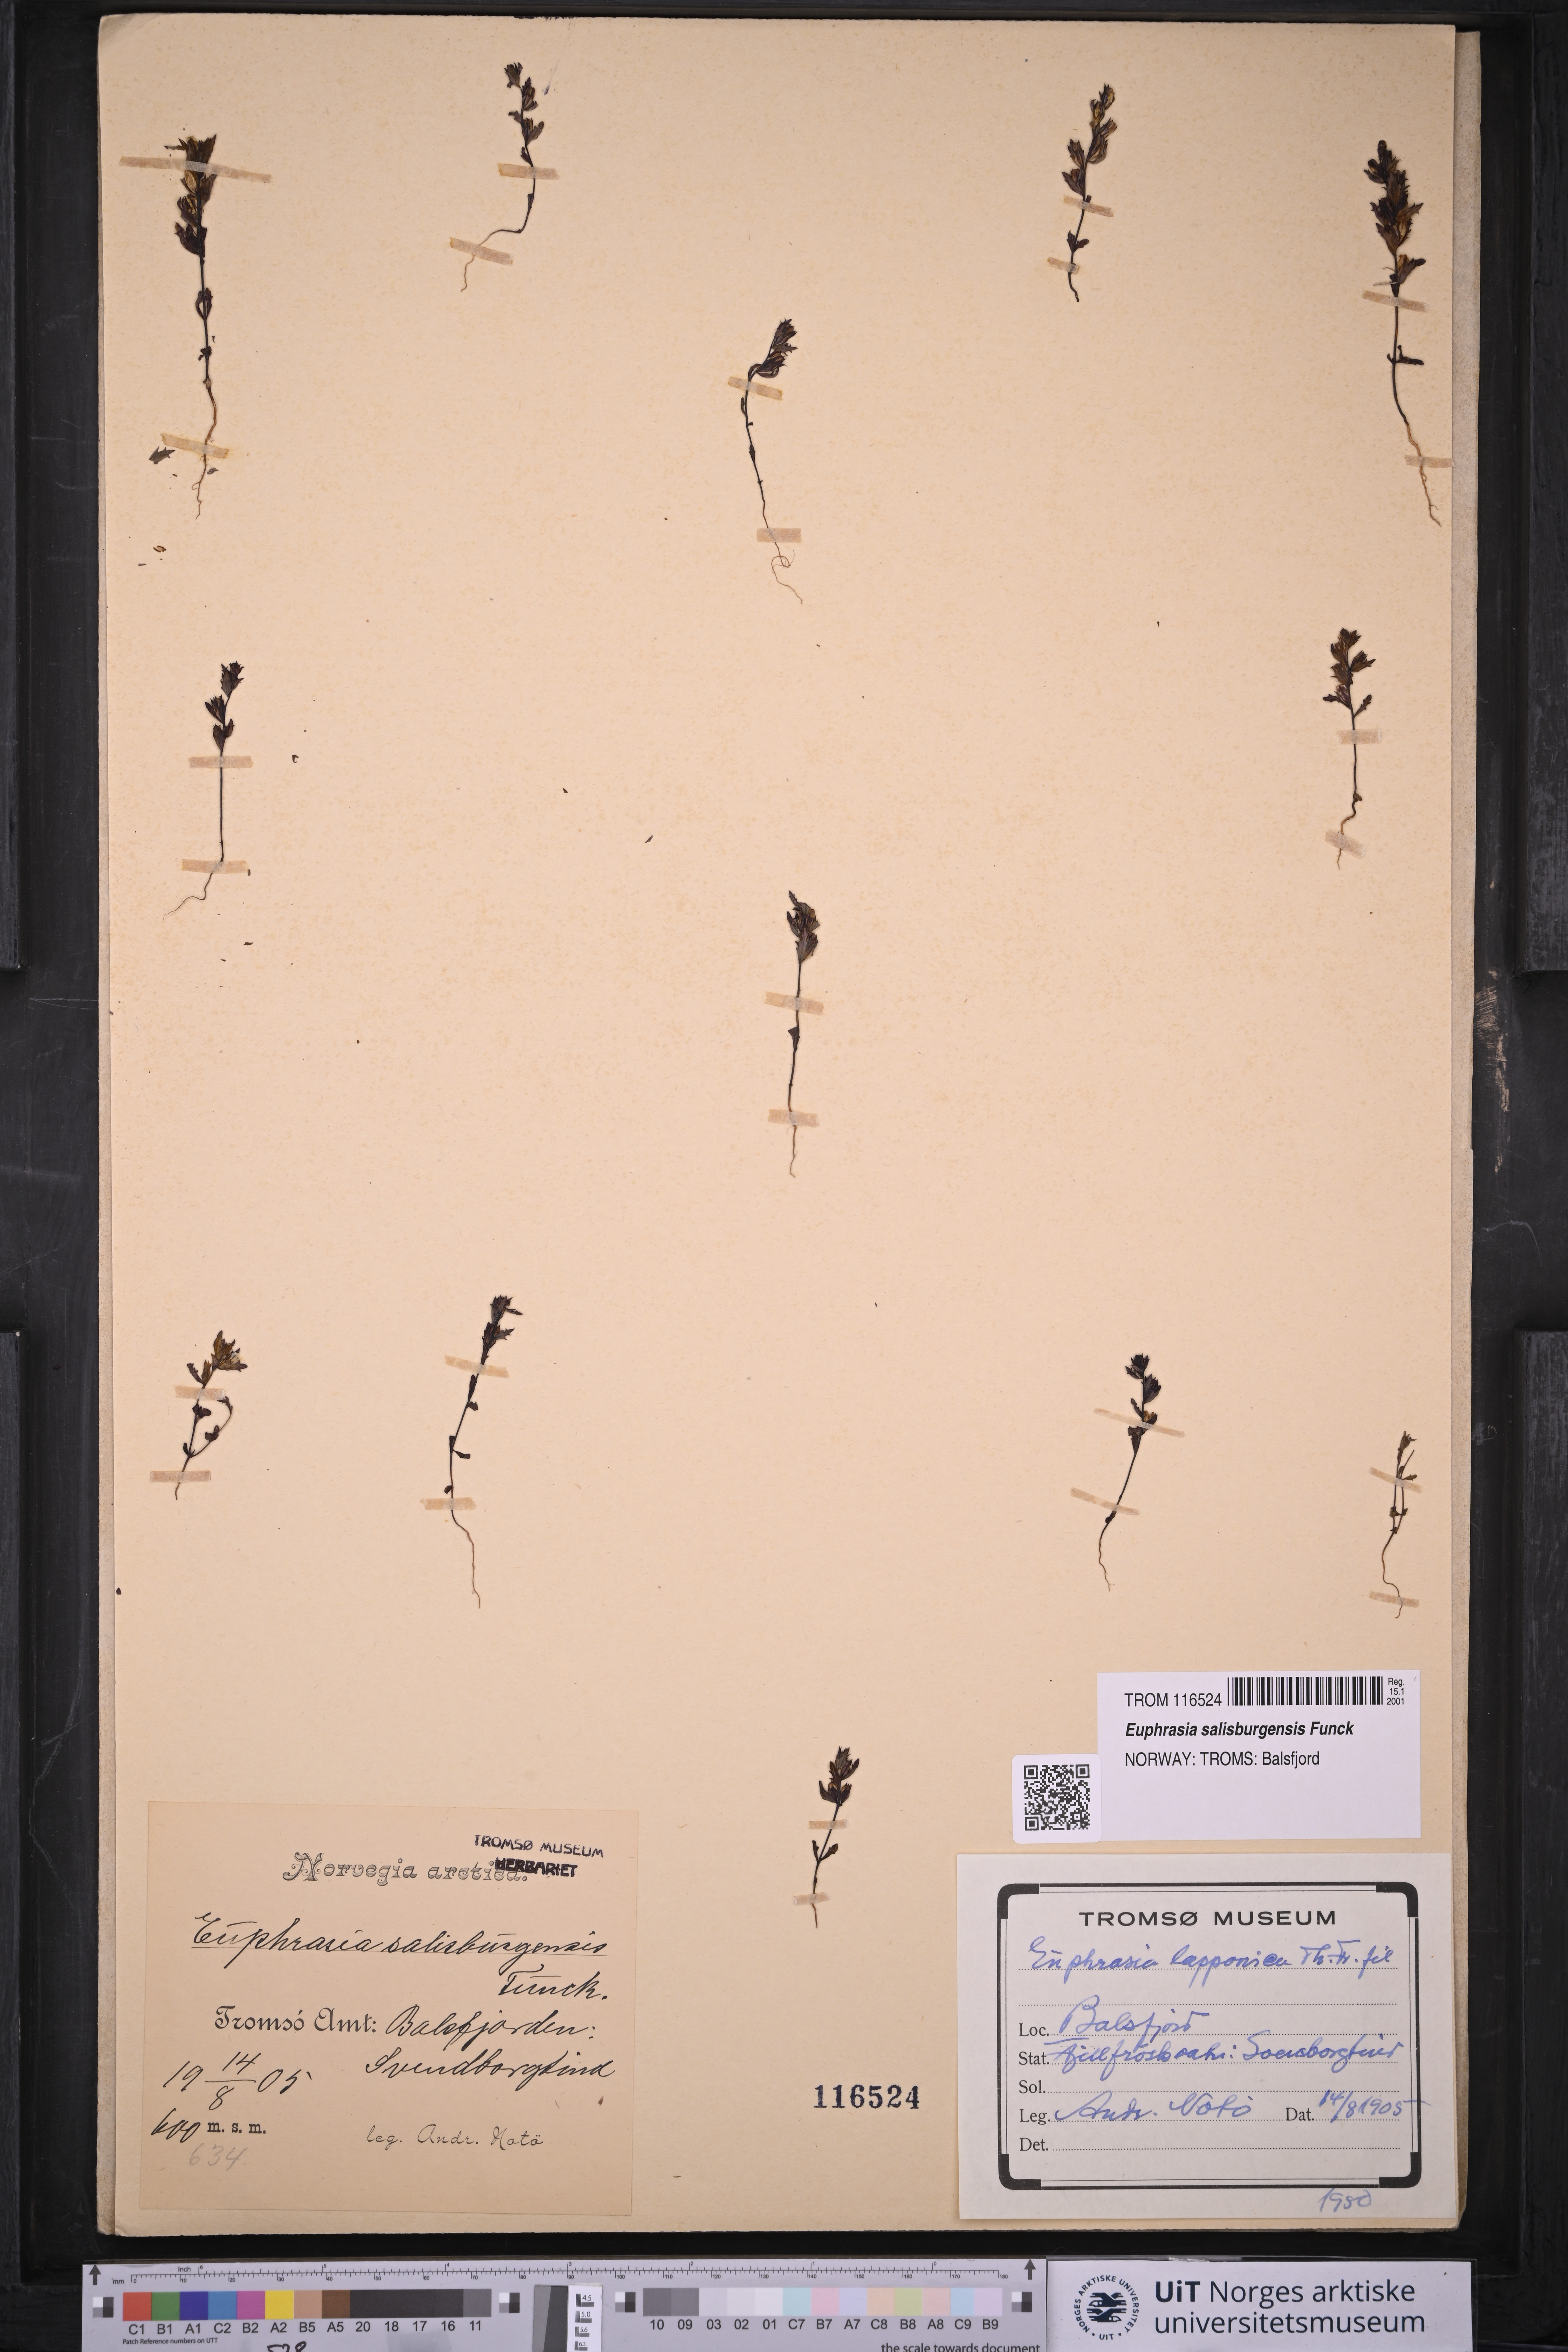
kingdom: Plantae
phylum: Tracheophyta
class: Magnoliopsida
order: Lamiales
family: Orobanchaceae
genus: Euphrasia
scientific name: Euphrasia salisburgensis
